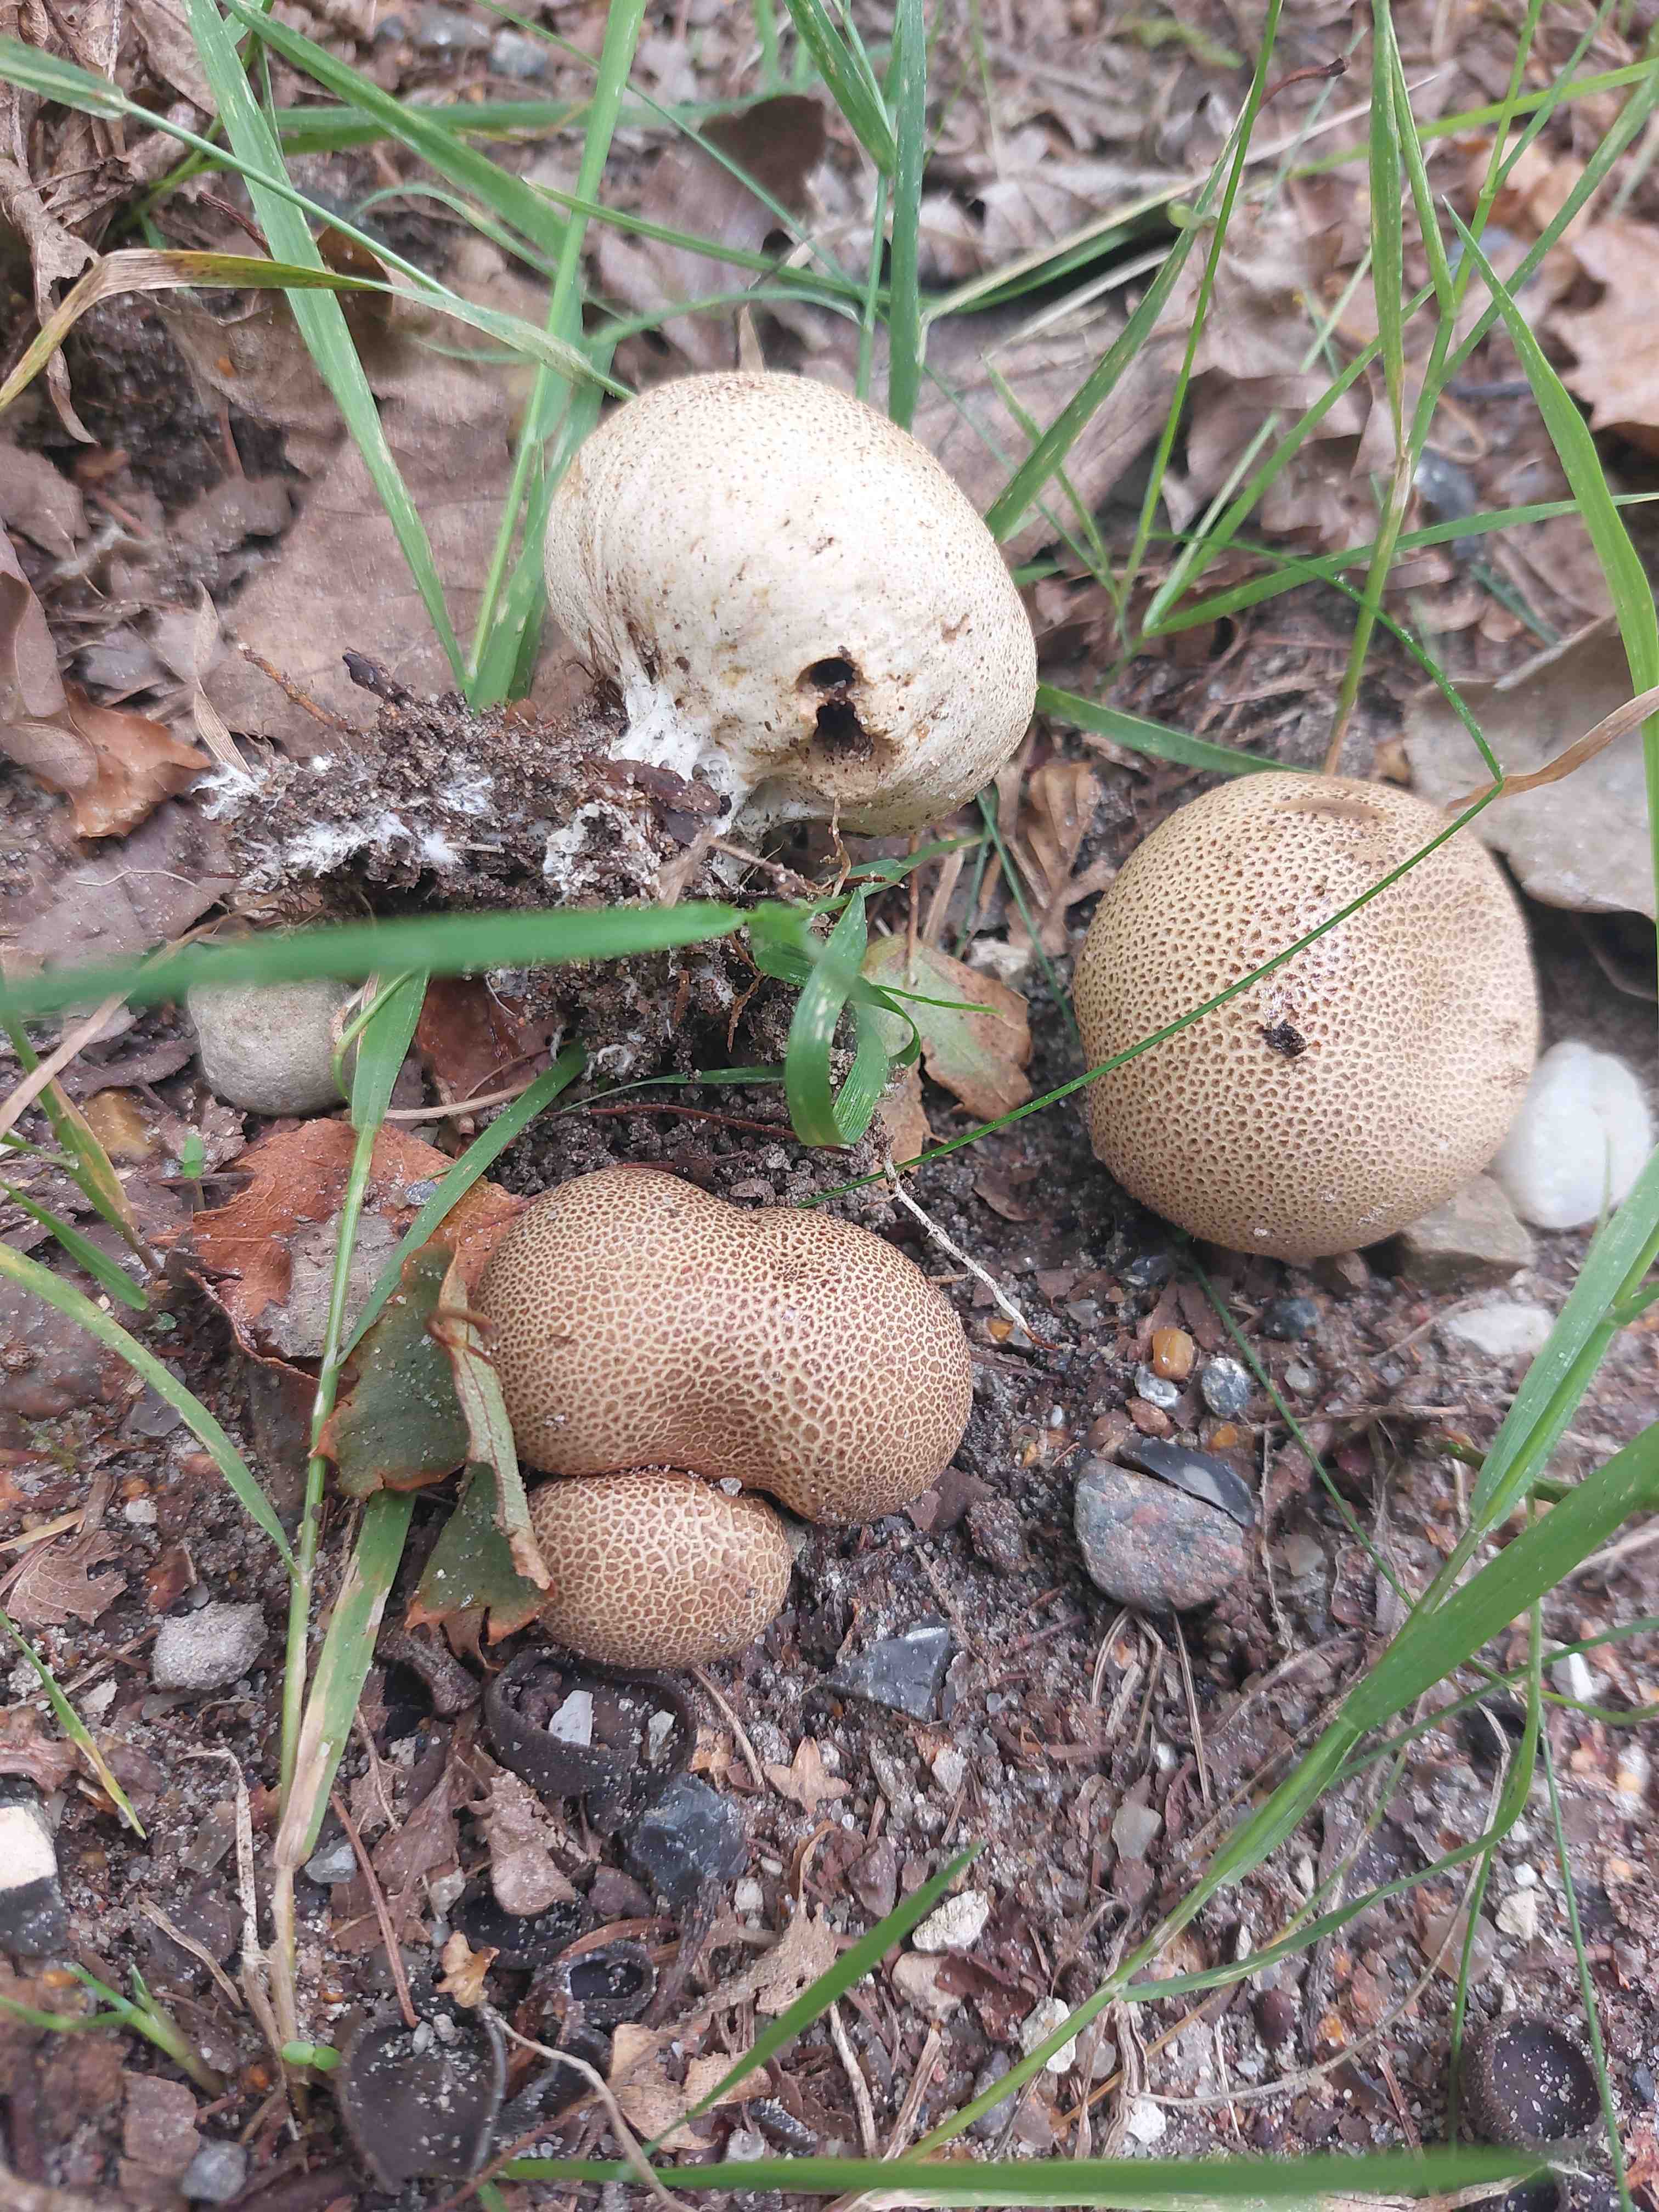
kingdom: Fungi
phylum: Basidiomycota
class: Agaricomycetes
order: Boletales
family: Sclerodermataceae
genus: Scleroderma
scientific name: Scleroderma areolatum
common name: plettet bruskbold
